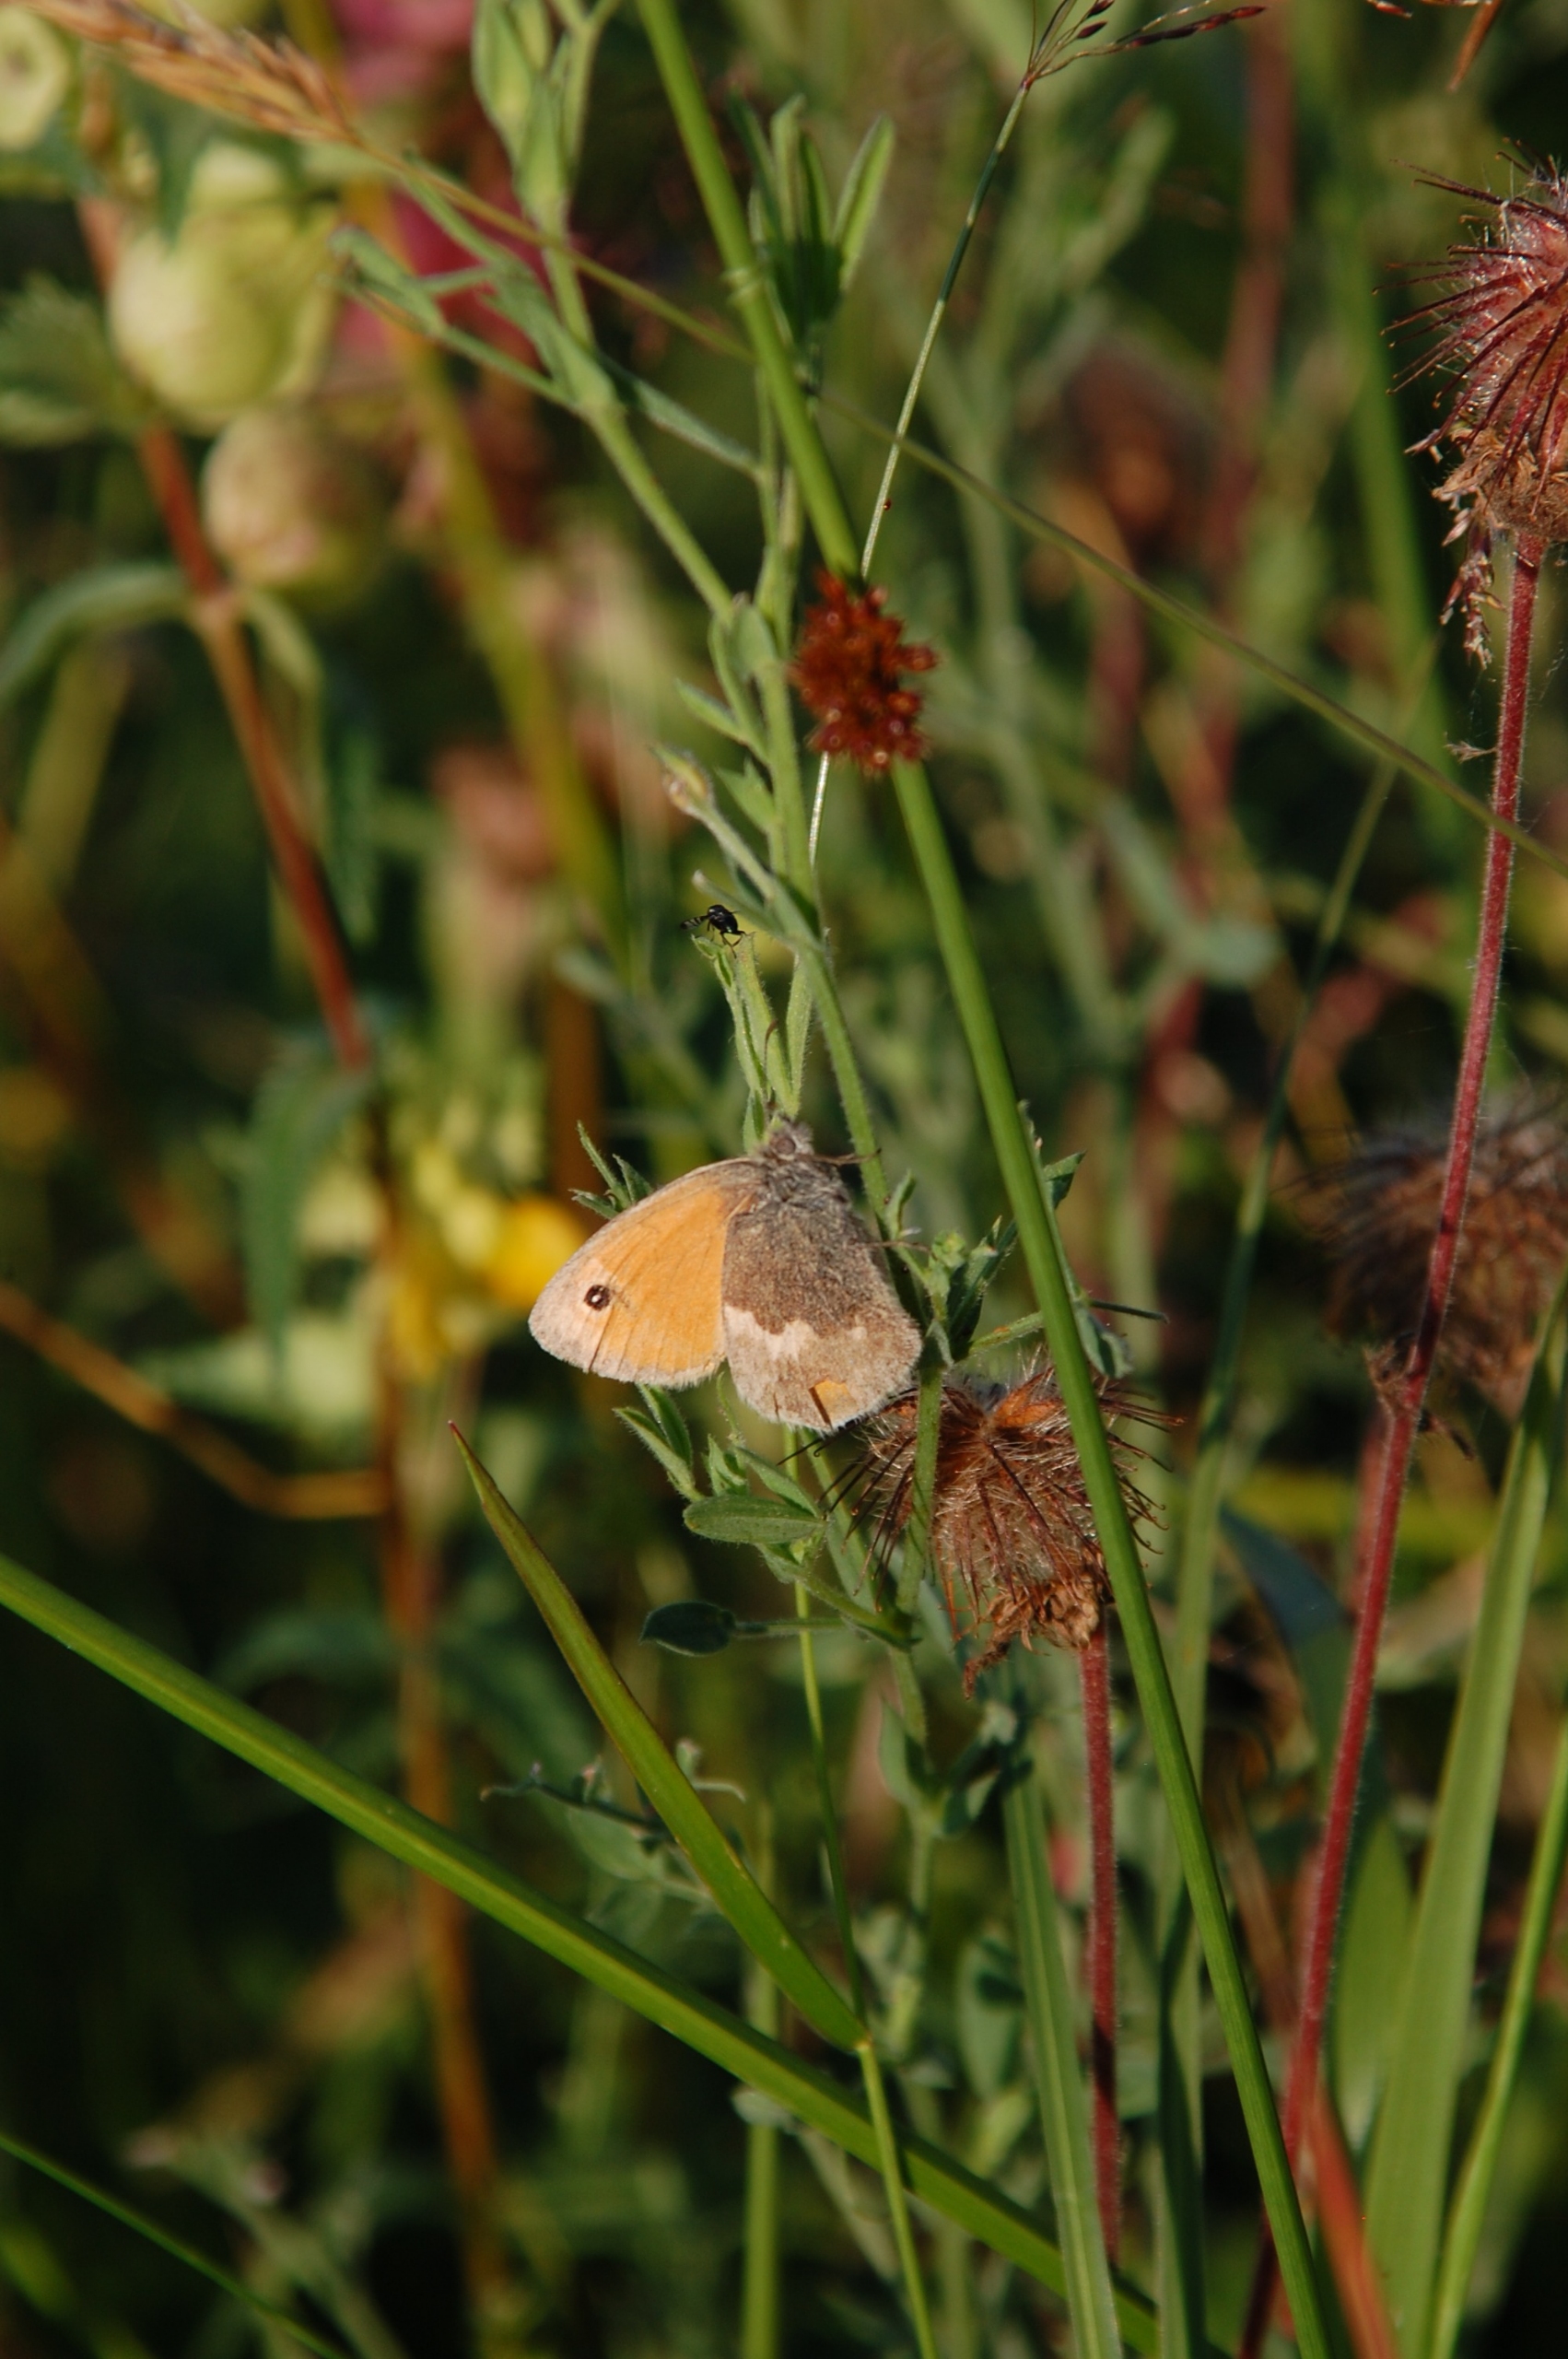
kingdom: Animalia
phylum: Arthropoda
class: Insecta
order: Lepidoptera
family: Nymphalidae
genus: Coenonympha
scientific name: Coenonympha pamphilus
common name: Okkergul randøje
